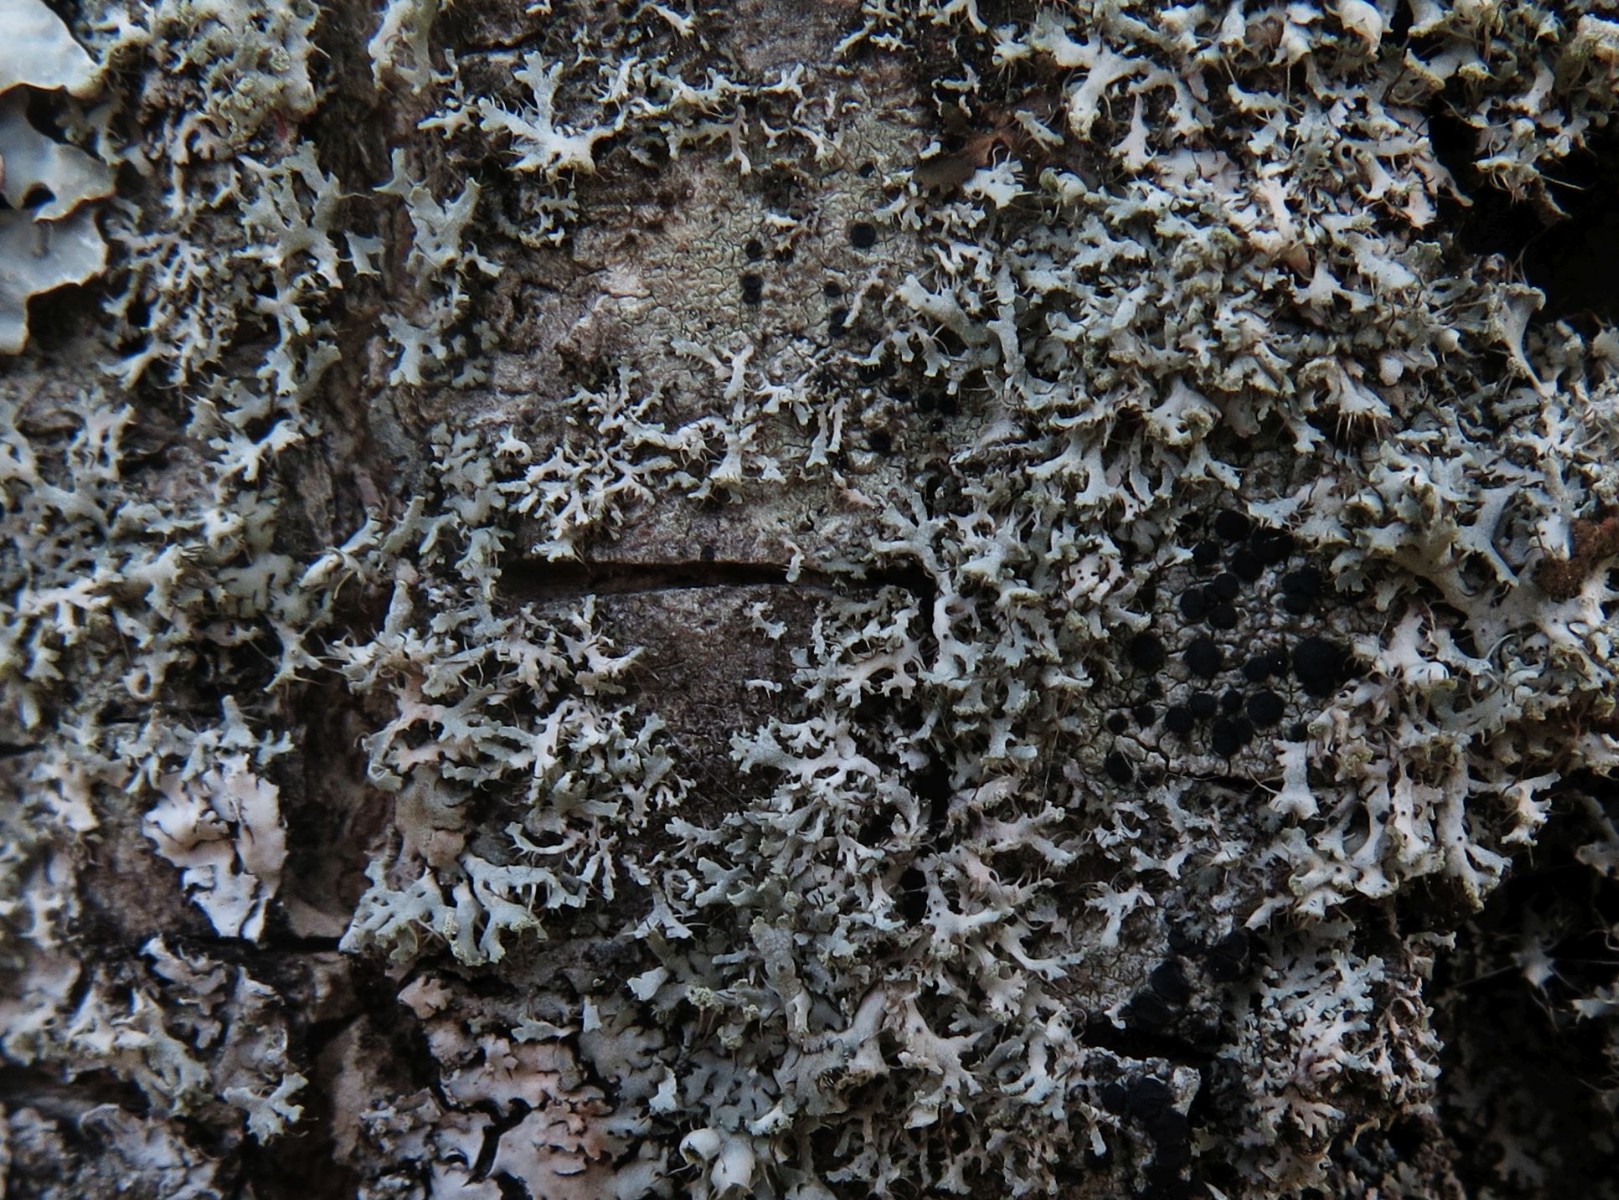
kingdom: Fungi
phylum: Ascomycota
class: Lecanoromycetes
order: Caliciales
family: Physciaceae
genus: Physcia
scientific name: Physcia tenella
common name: spæd rosetlav
